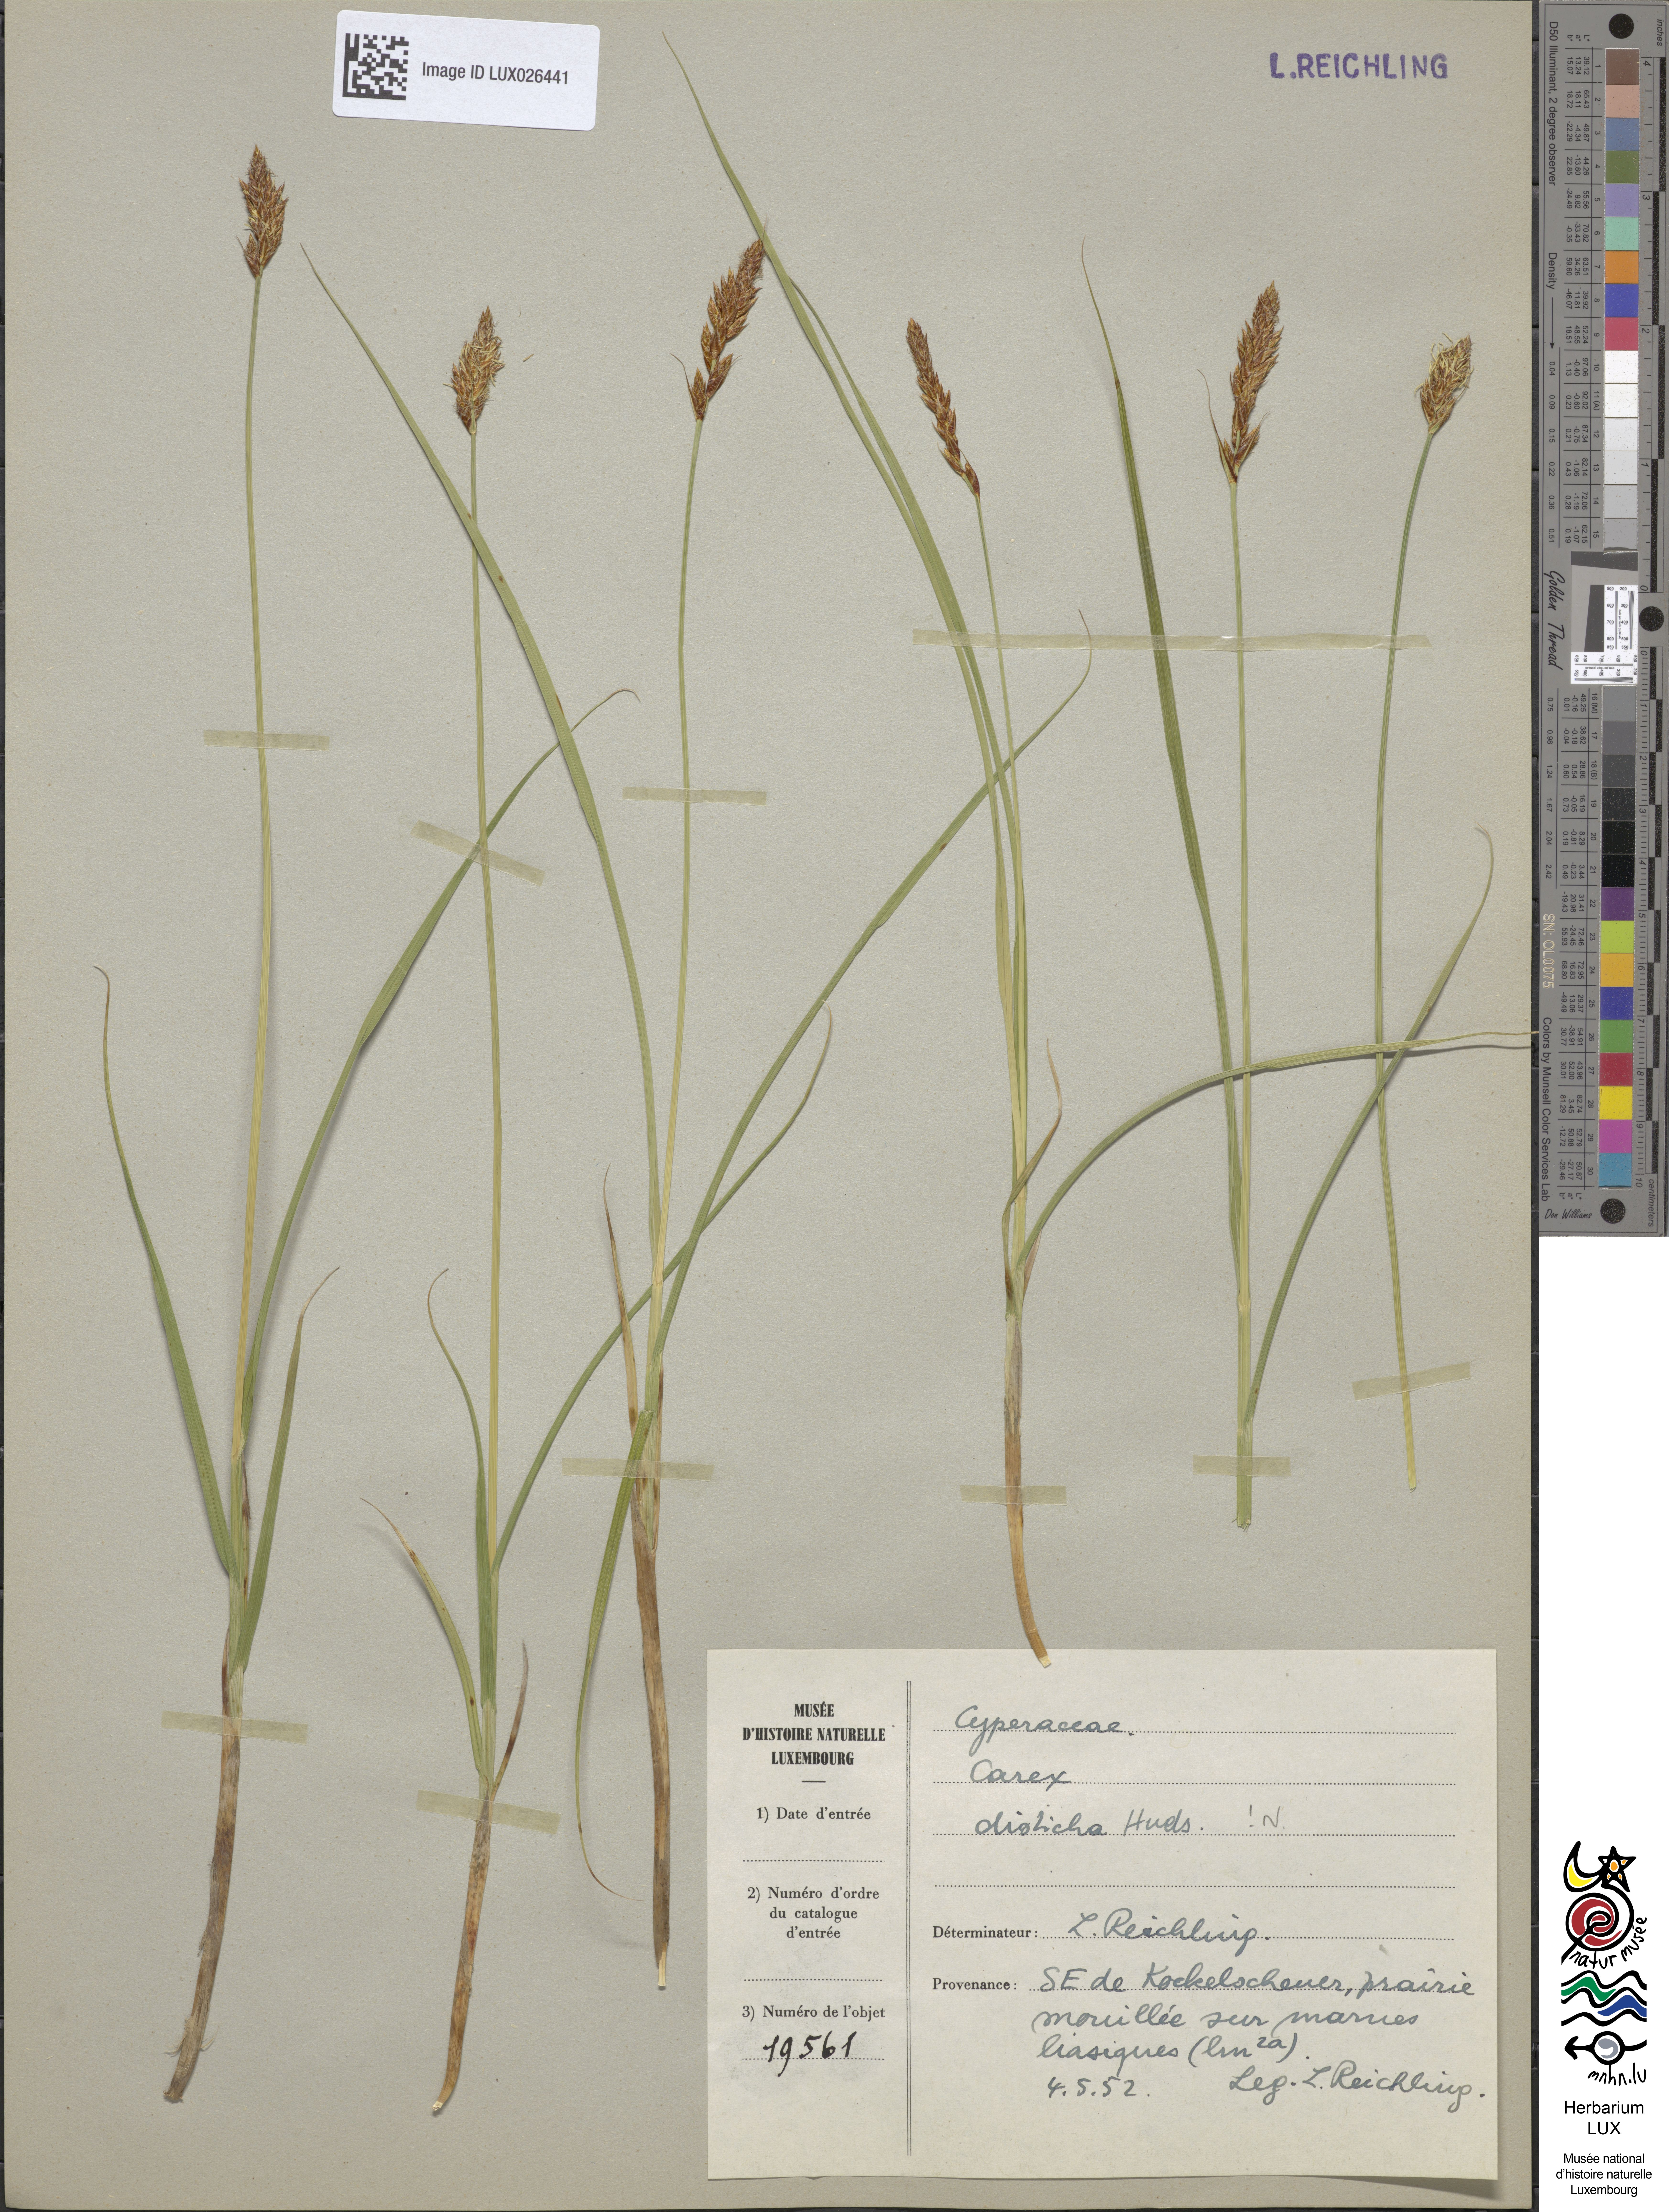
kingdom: Plantae
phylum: Tracheophyta
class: Liliopsida
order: Poales
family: Cyperaceae
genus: Carex
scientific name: Carex disticha
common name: Brown sedge
